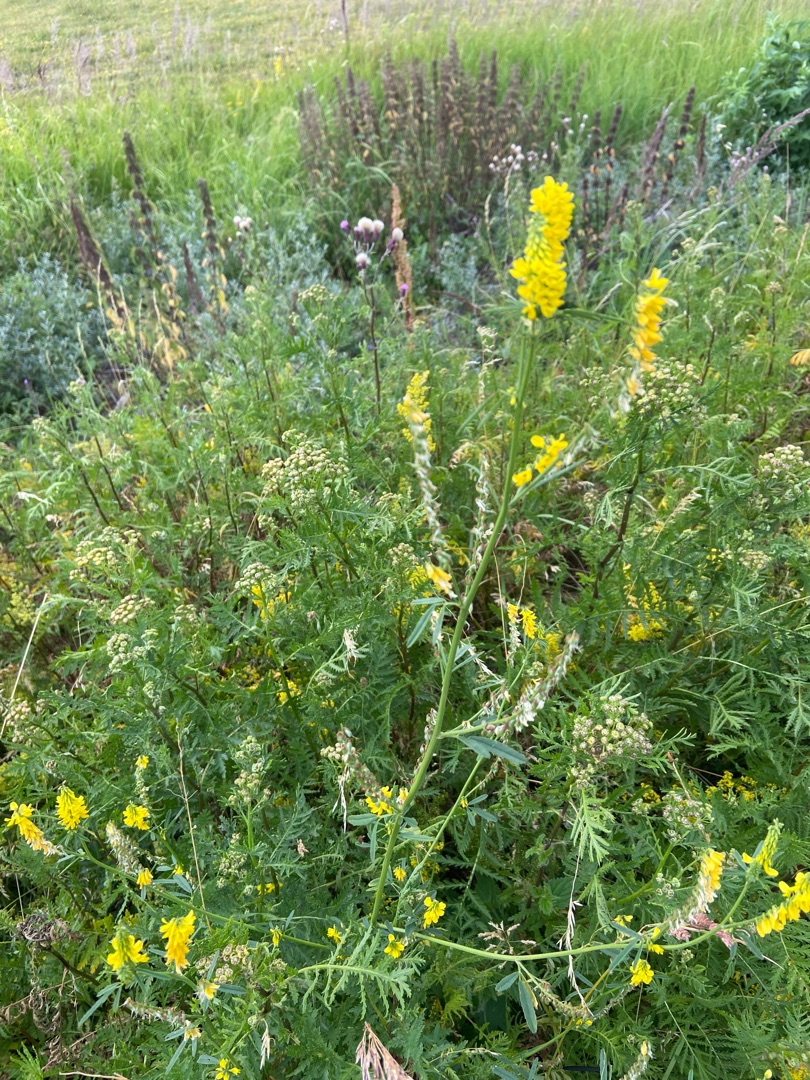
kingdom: Plantae
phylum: Tracheophyta
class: Magnoliopsida
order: Fabales
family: Fabaceae
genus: Melilotus
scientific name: Melilotus altissimus
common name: Høj stenkløver
